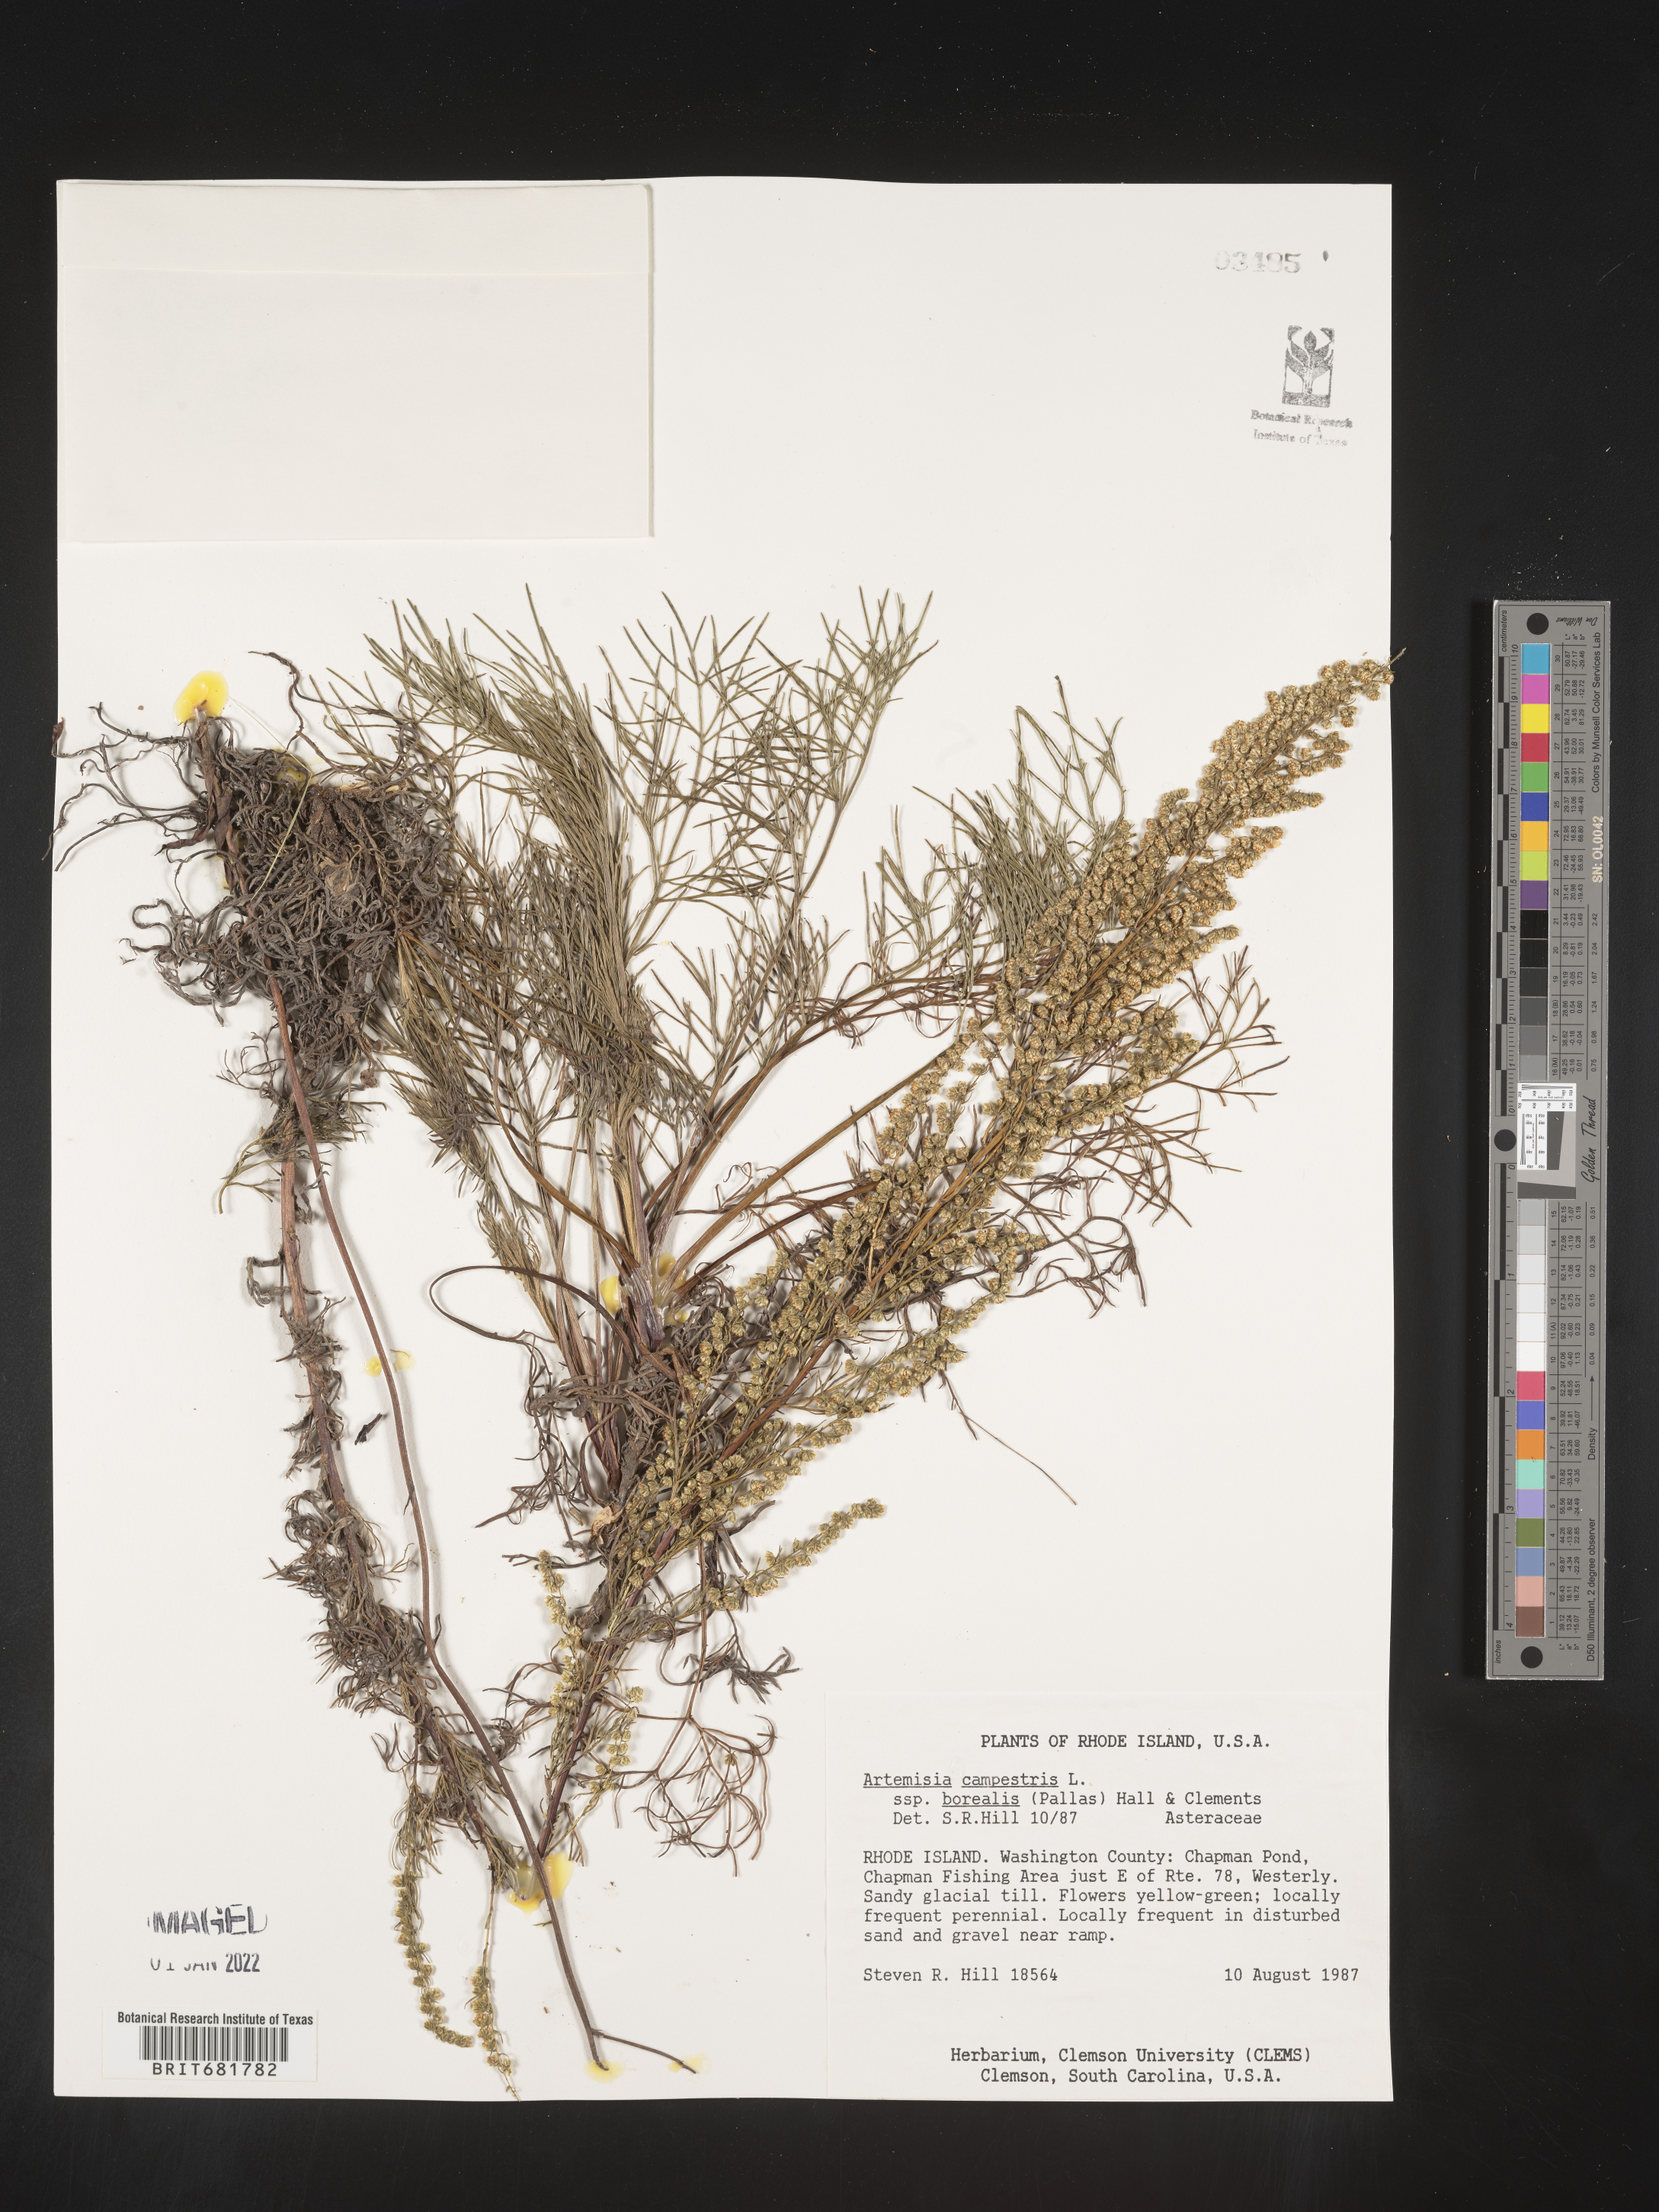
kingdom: Plantae
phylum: Tracheophyta
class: Magnoliopsida
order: Asterales
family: Asteraceae
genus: Artemisia
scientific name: Artemisia campestris
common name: Field wormwood
